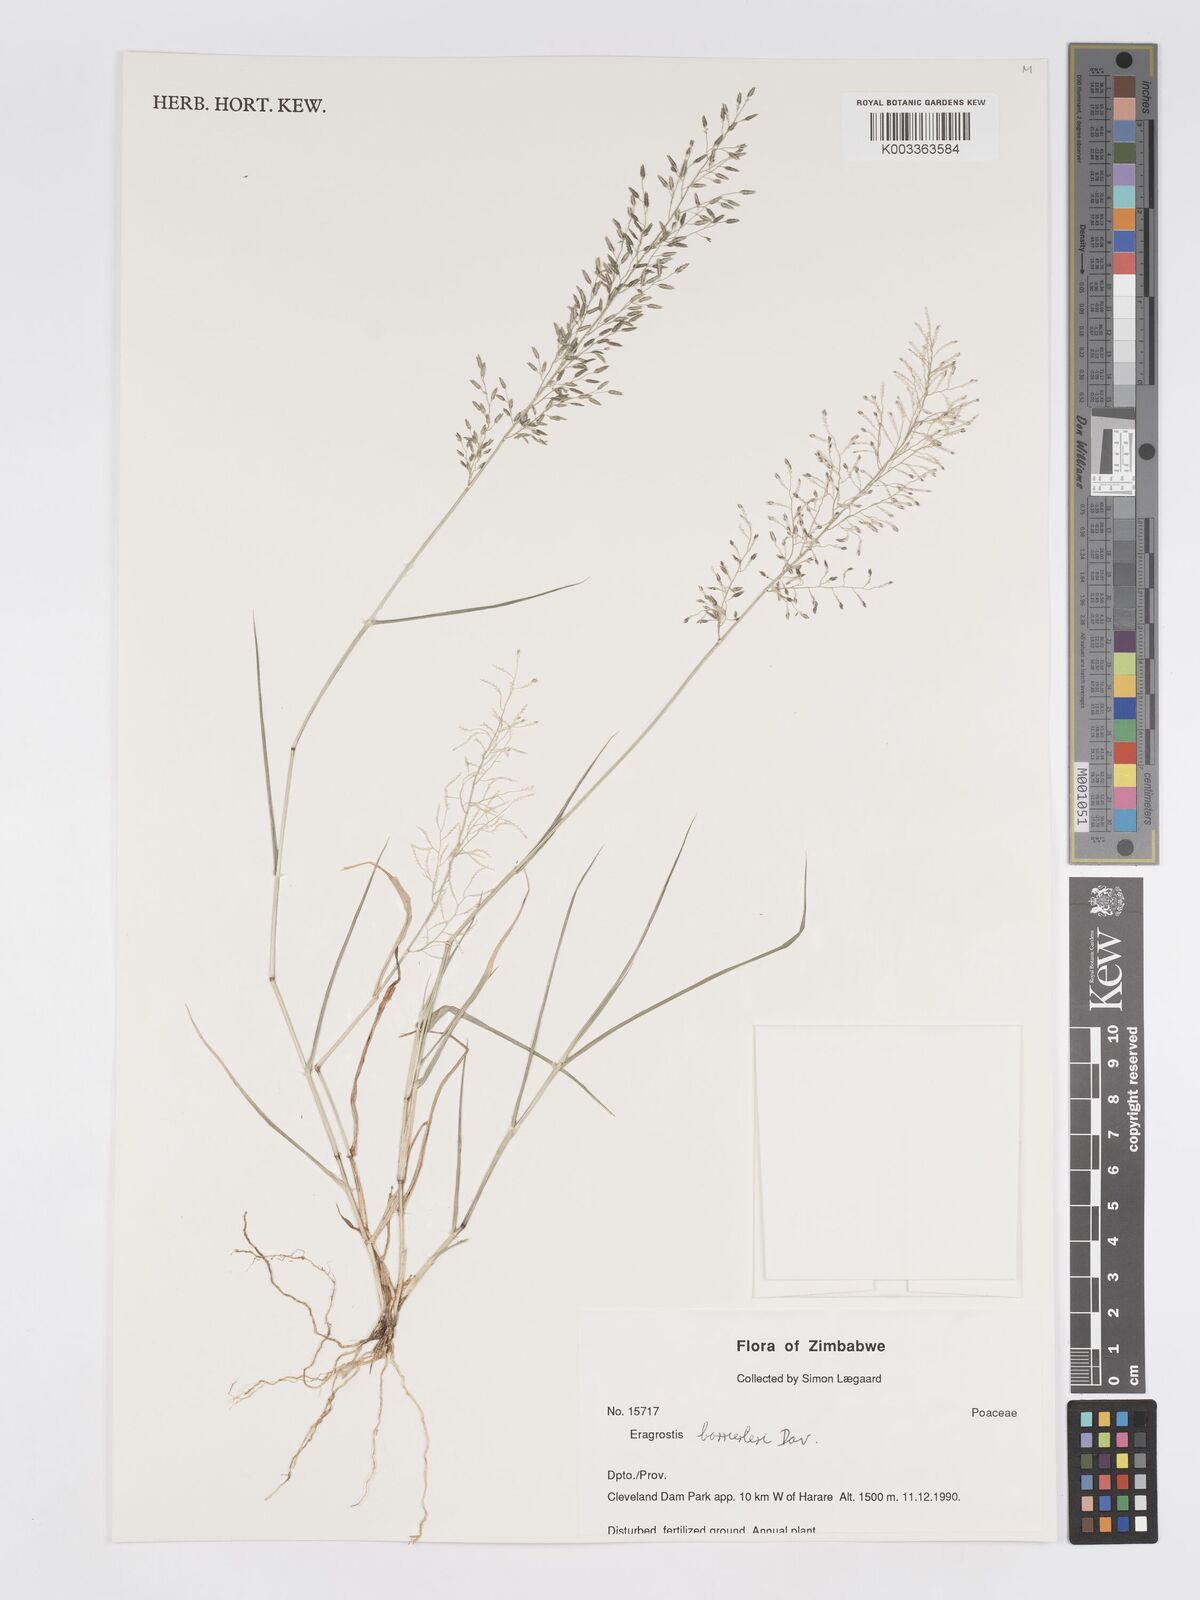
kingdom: Plantae
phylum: Tracheophyta
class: Liliopsida
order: Poales
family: Poaceae
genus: Eragrostis
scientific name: Eragrostis barrelieri
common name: Mediterranean lovegrass
